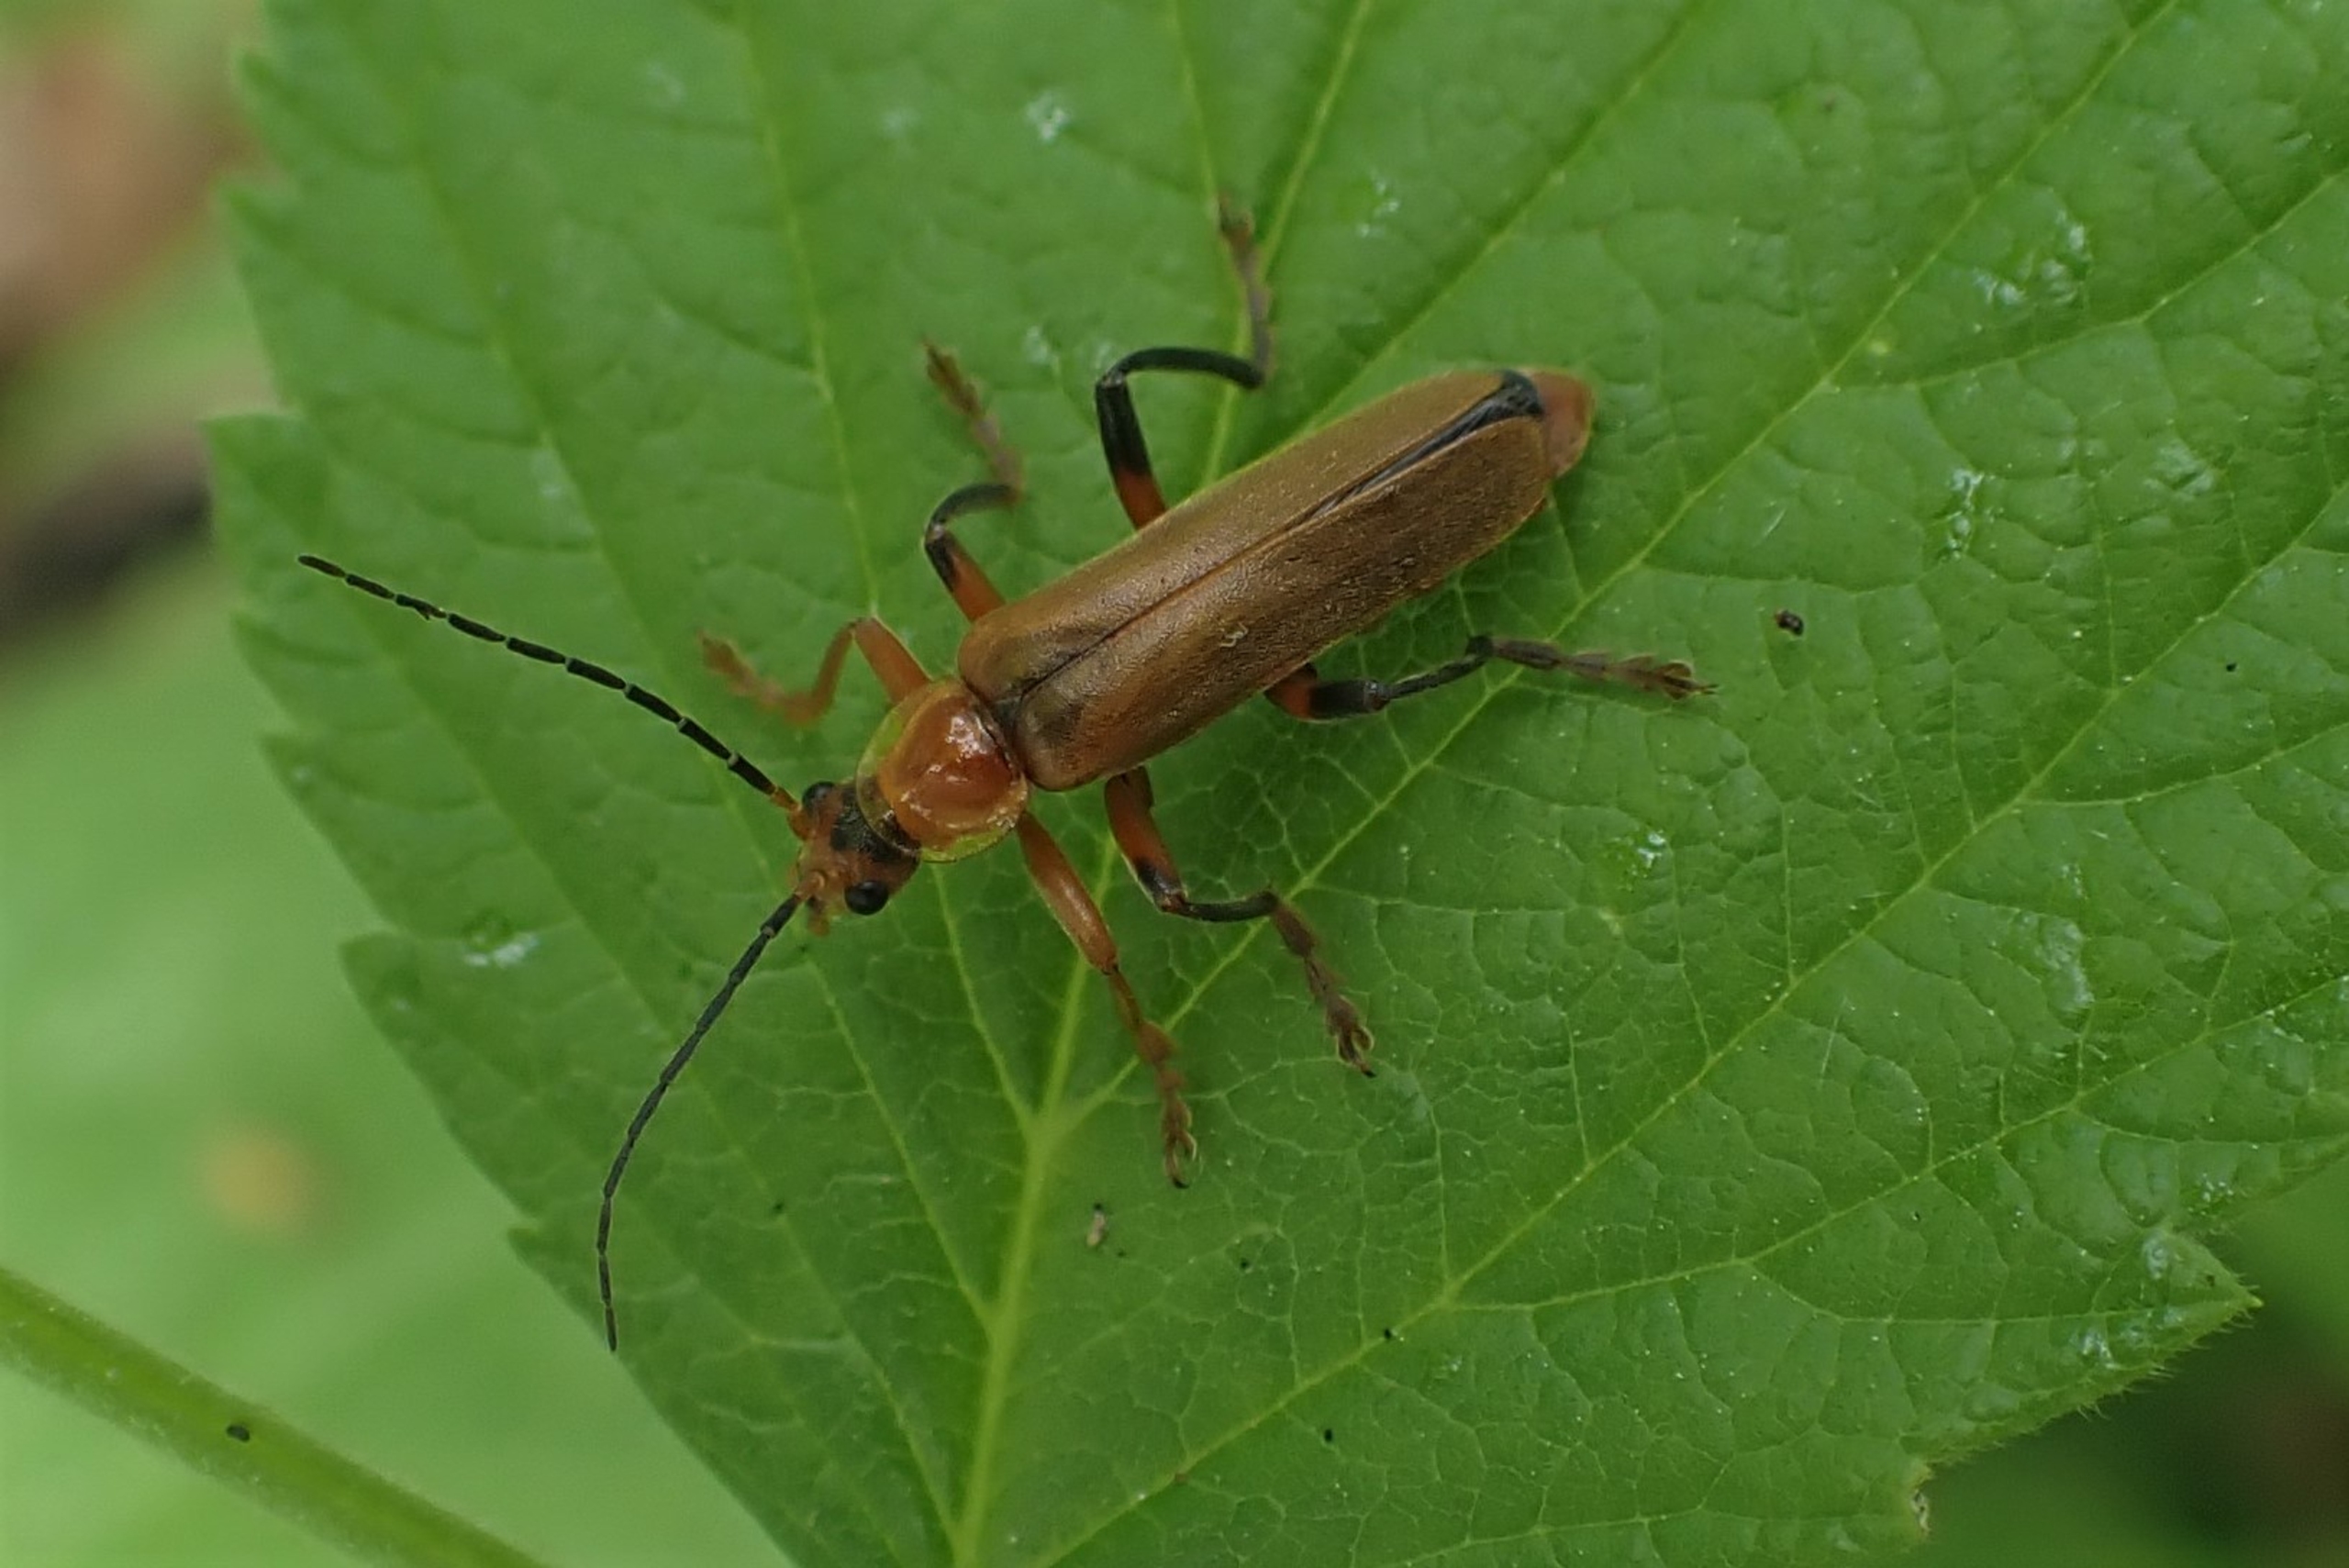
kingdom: Animalia
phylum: Arthropoda
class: Insecta
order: Coleoptera
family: Cantharidae
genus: Cantharis
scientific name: Cantharis livida
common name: Gul blødvinge
